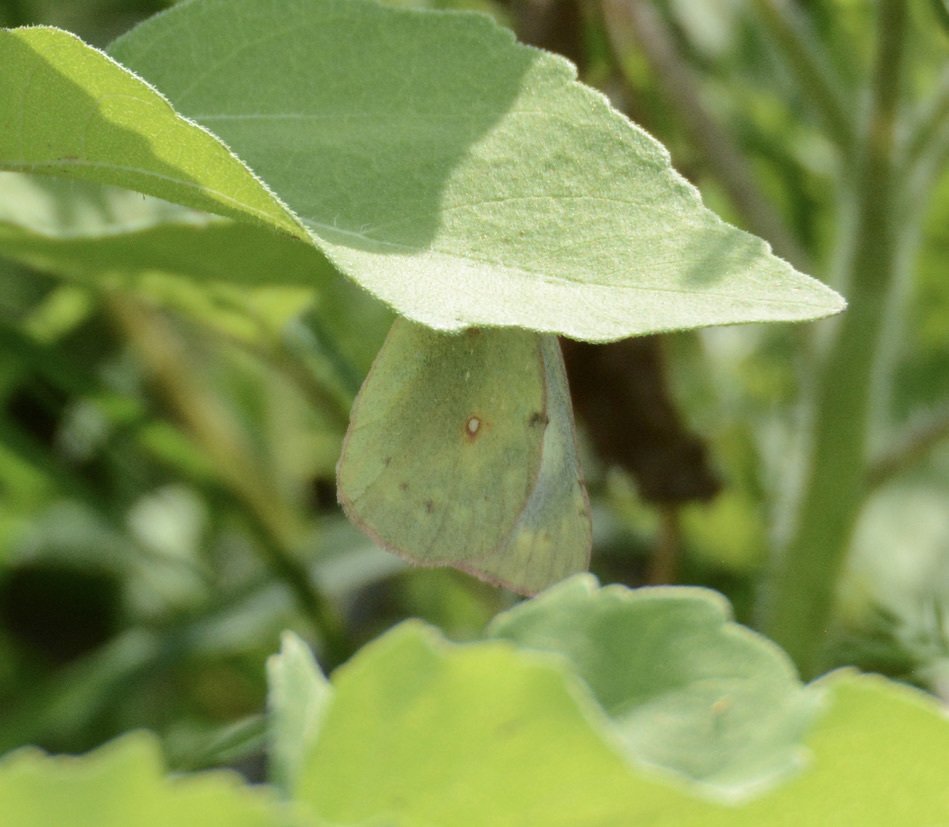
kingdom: Animalia
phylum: Arthropoda
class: Insecta
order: Lepidoptera
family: Pieridae
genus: Zerene
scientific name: Zerene cesonia
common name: Southern Dogface
